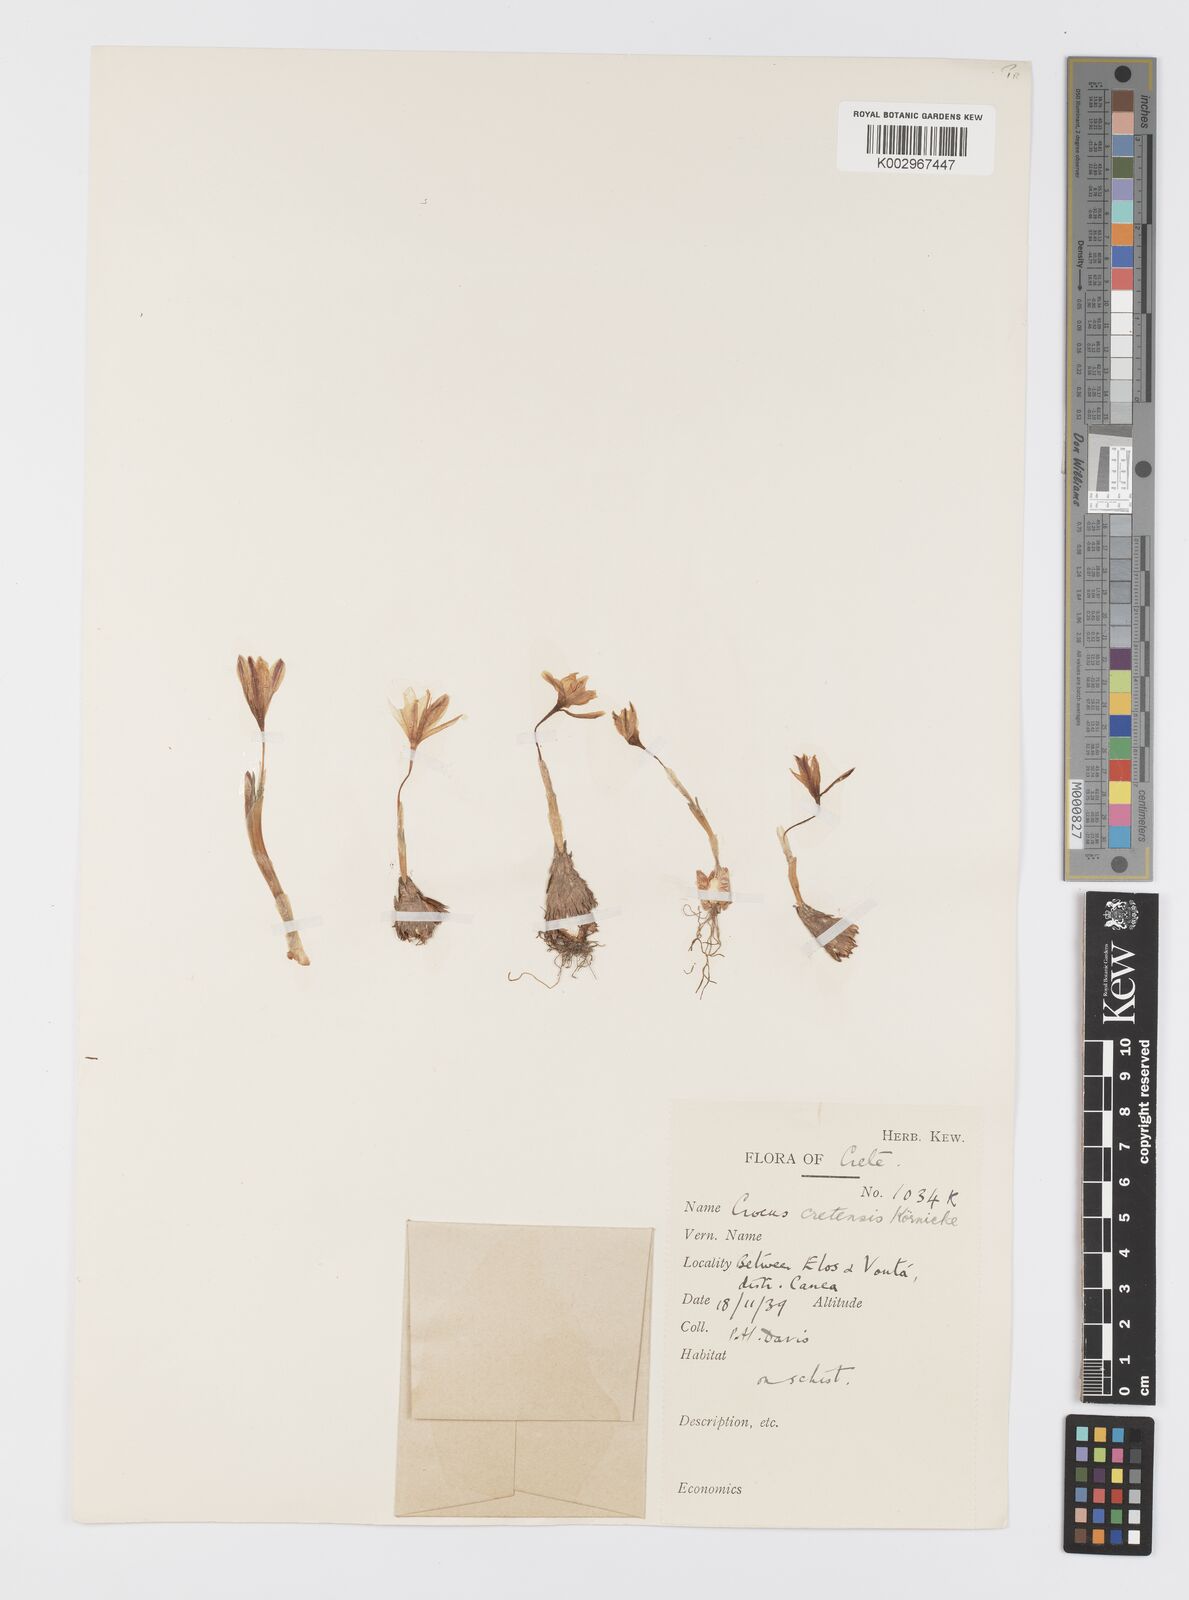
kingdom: Plantae
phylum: Tracheophyta
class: Liliopsida
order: Asparagales
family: Iridaceae
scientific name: Iridaceae
